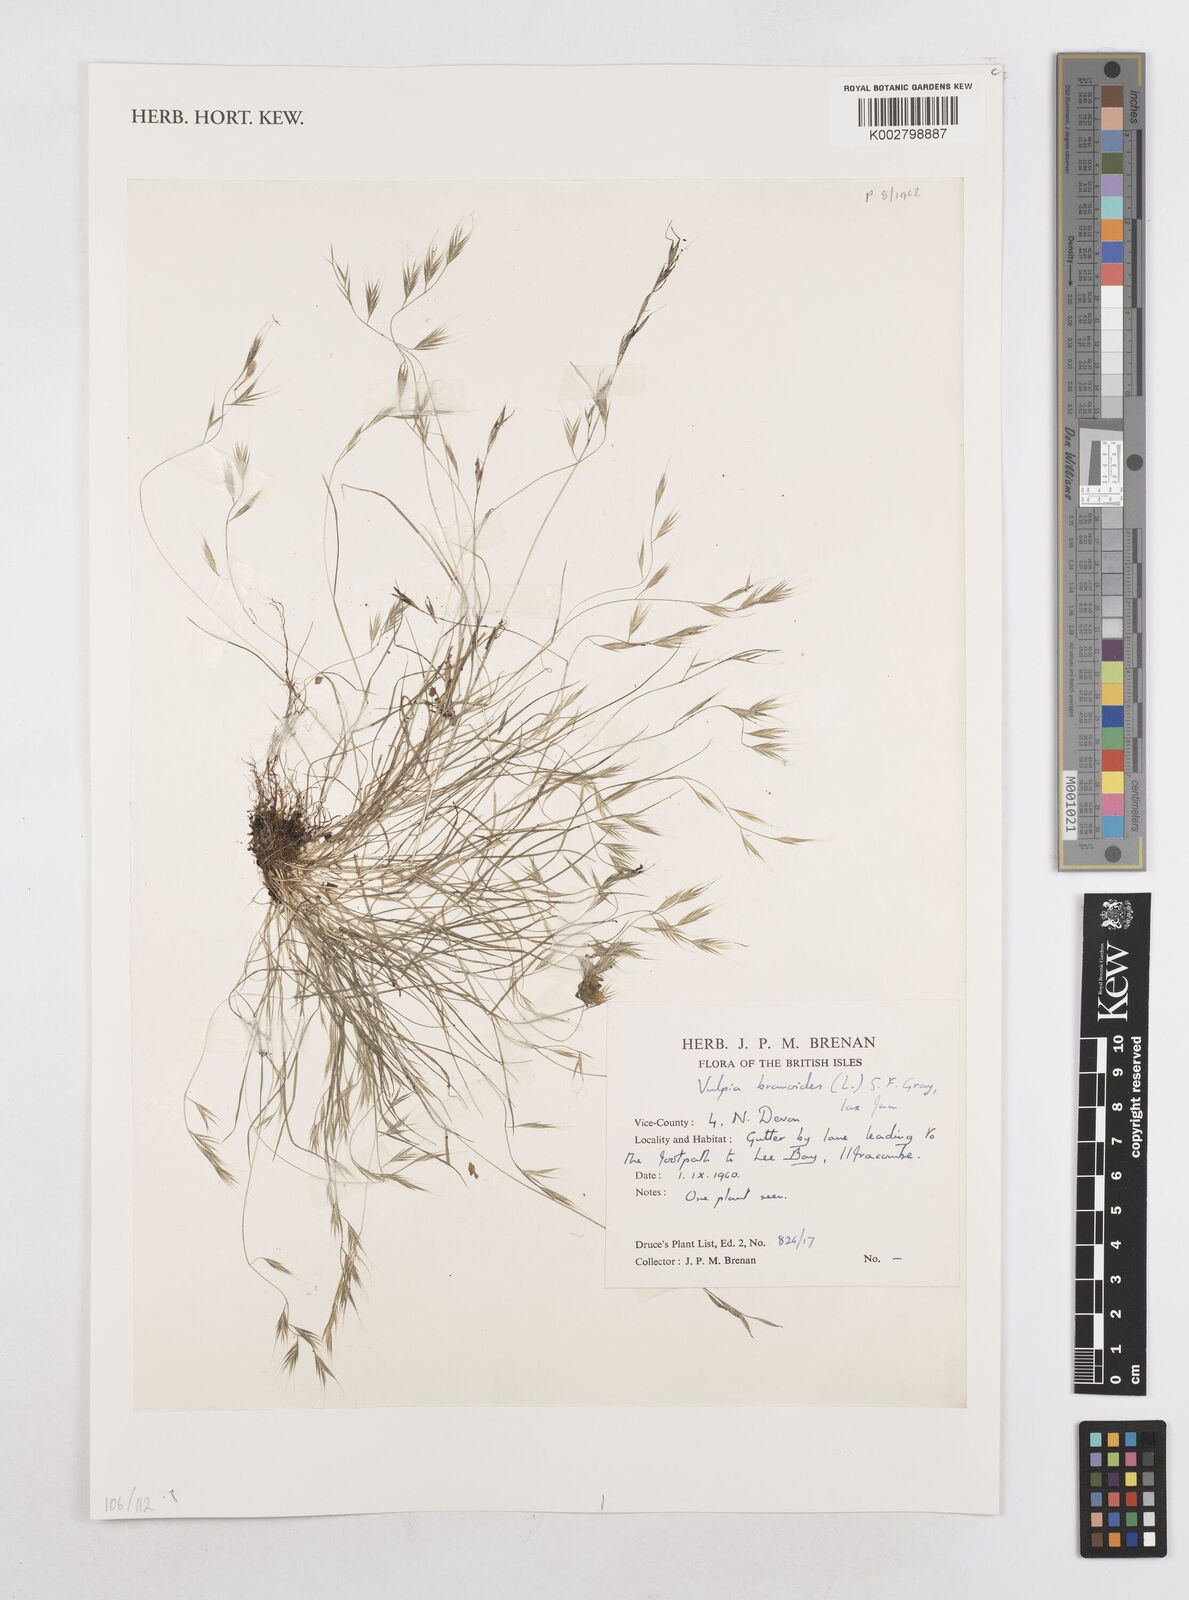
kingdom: Plantae
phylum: Tracheophyta
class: Liliopsida
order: Poales
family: Poaceae
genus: Festuca
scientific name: Festuca bromoides
